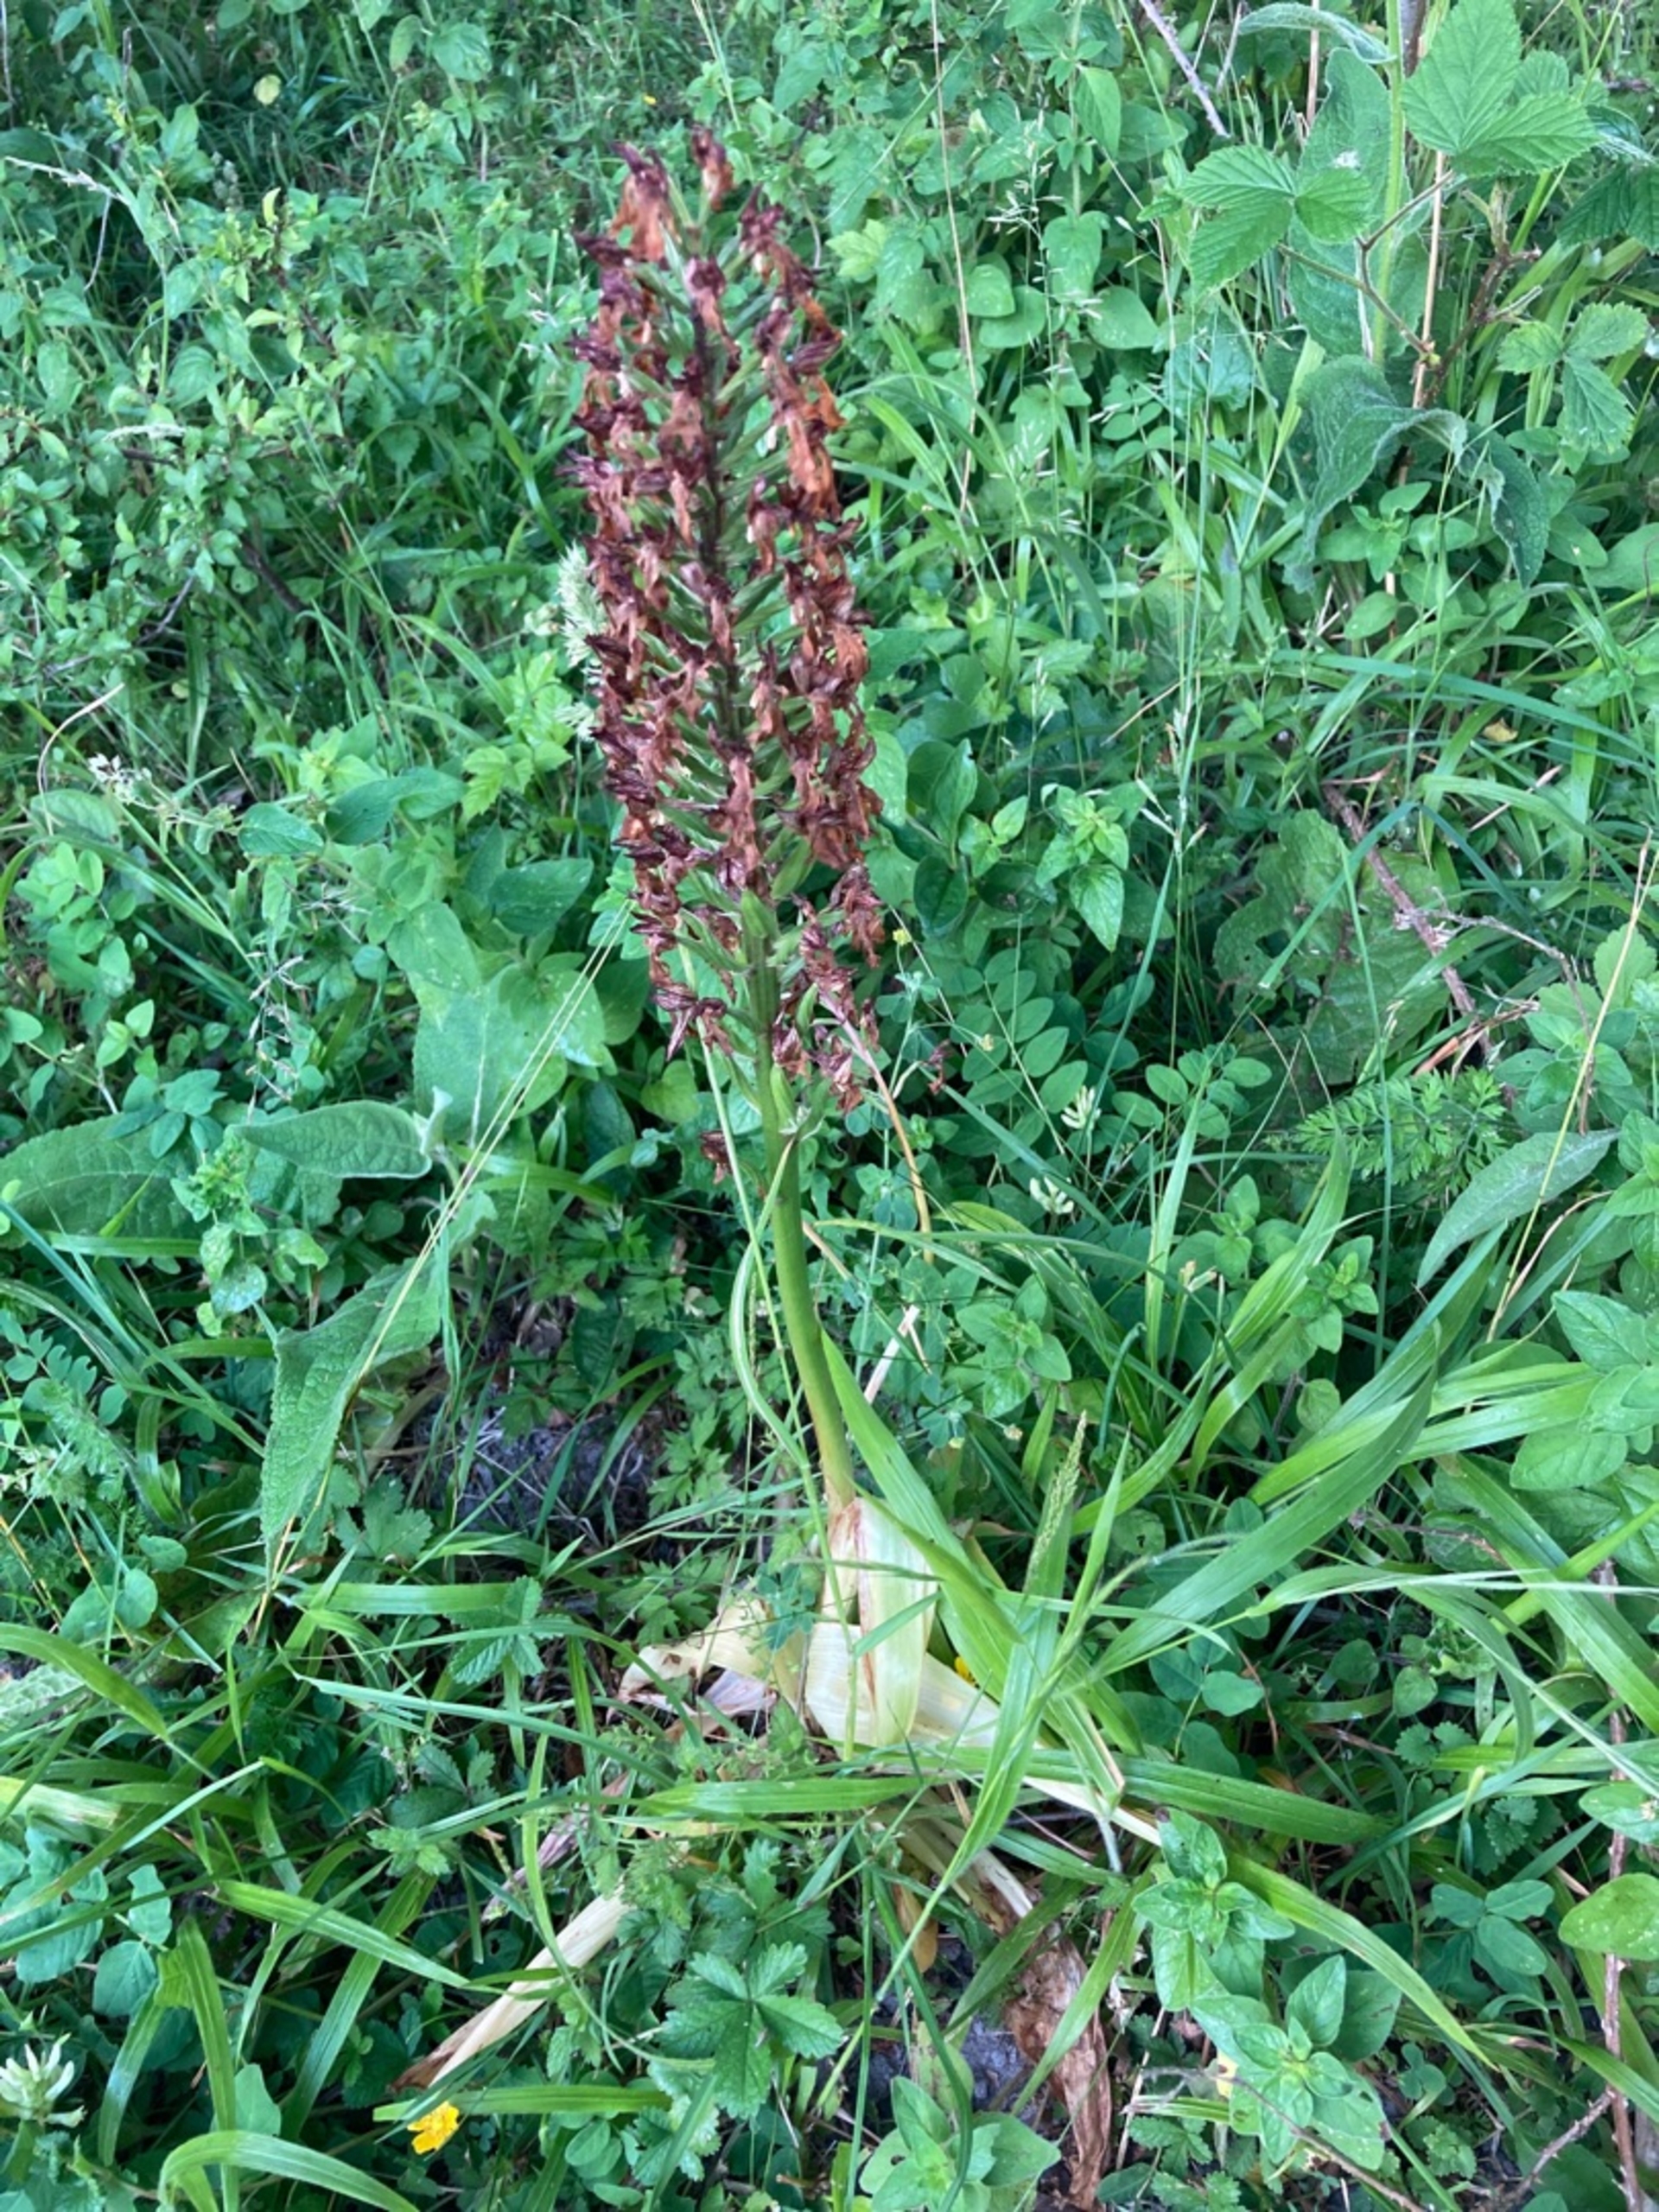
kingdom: Plantae
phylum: Tracheophyta
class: Liliopsida
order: Asparagales
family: Orchidaceae
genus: Orchis
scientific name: Orchis purpurea
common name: Stor gøgeurt
